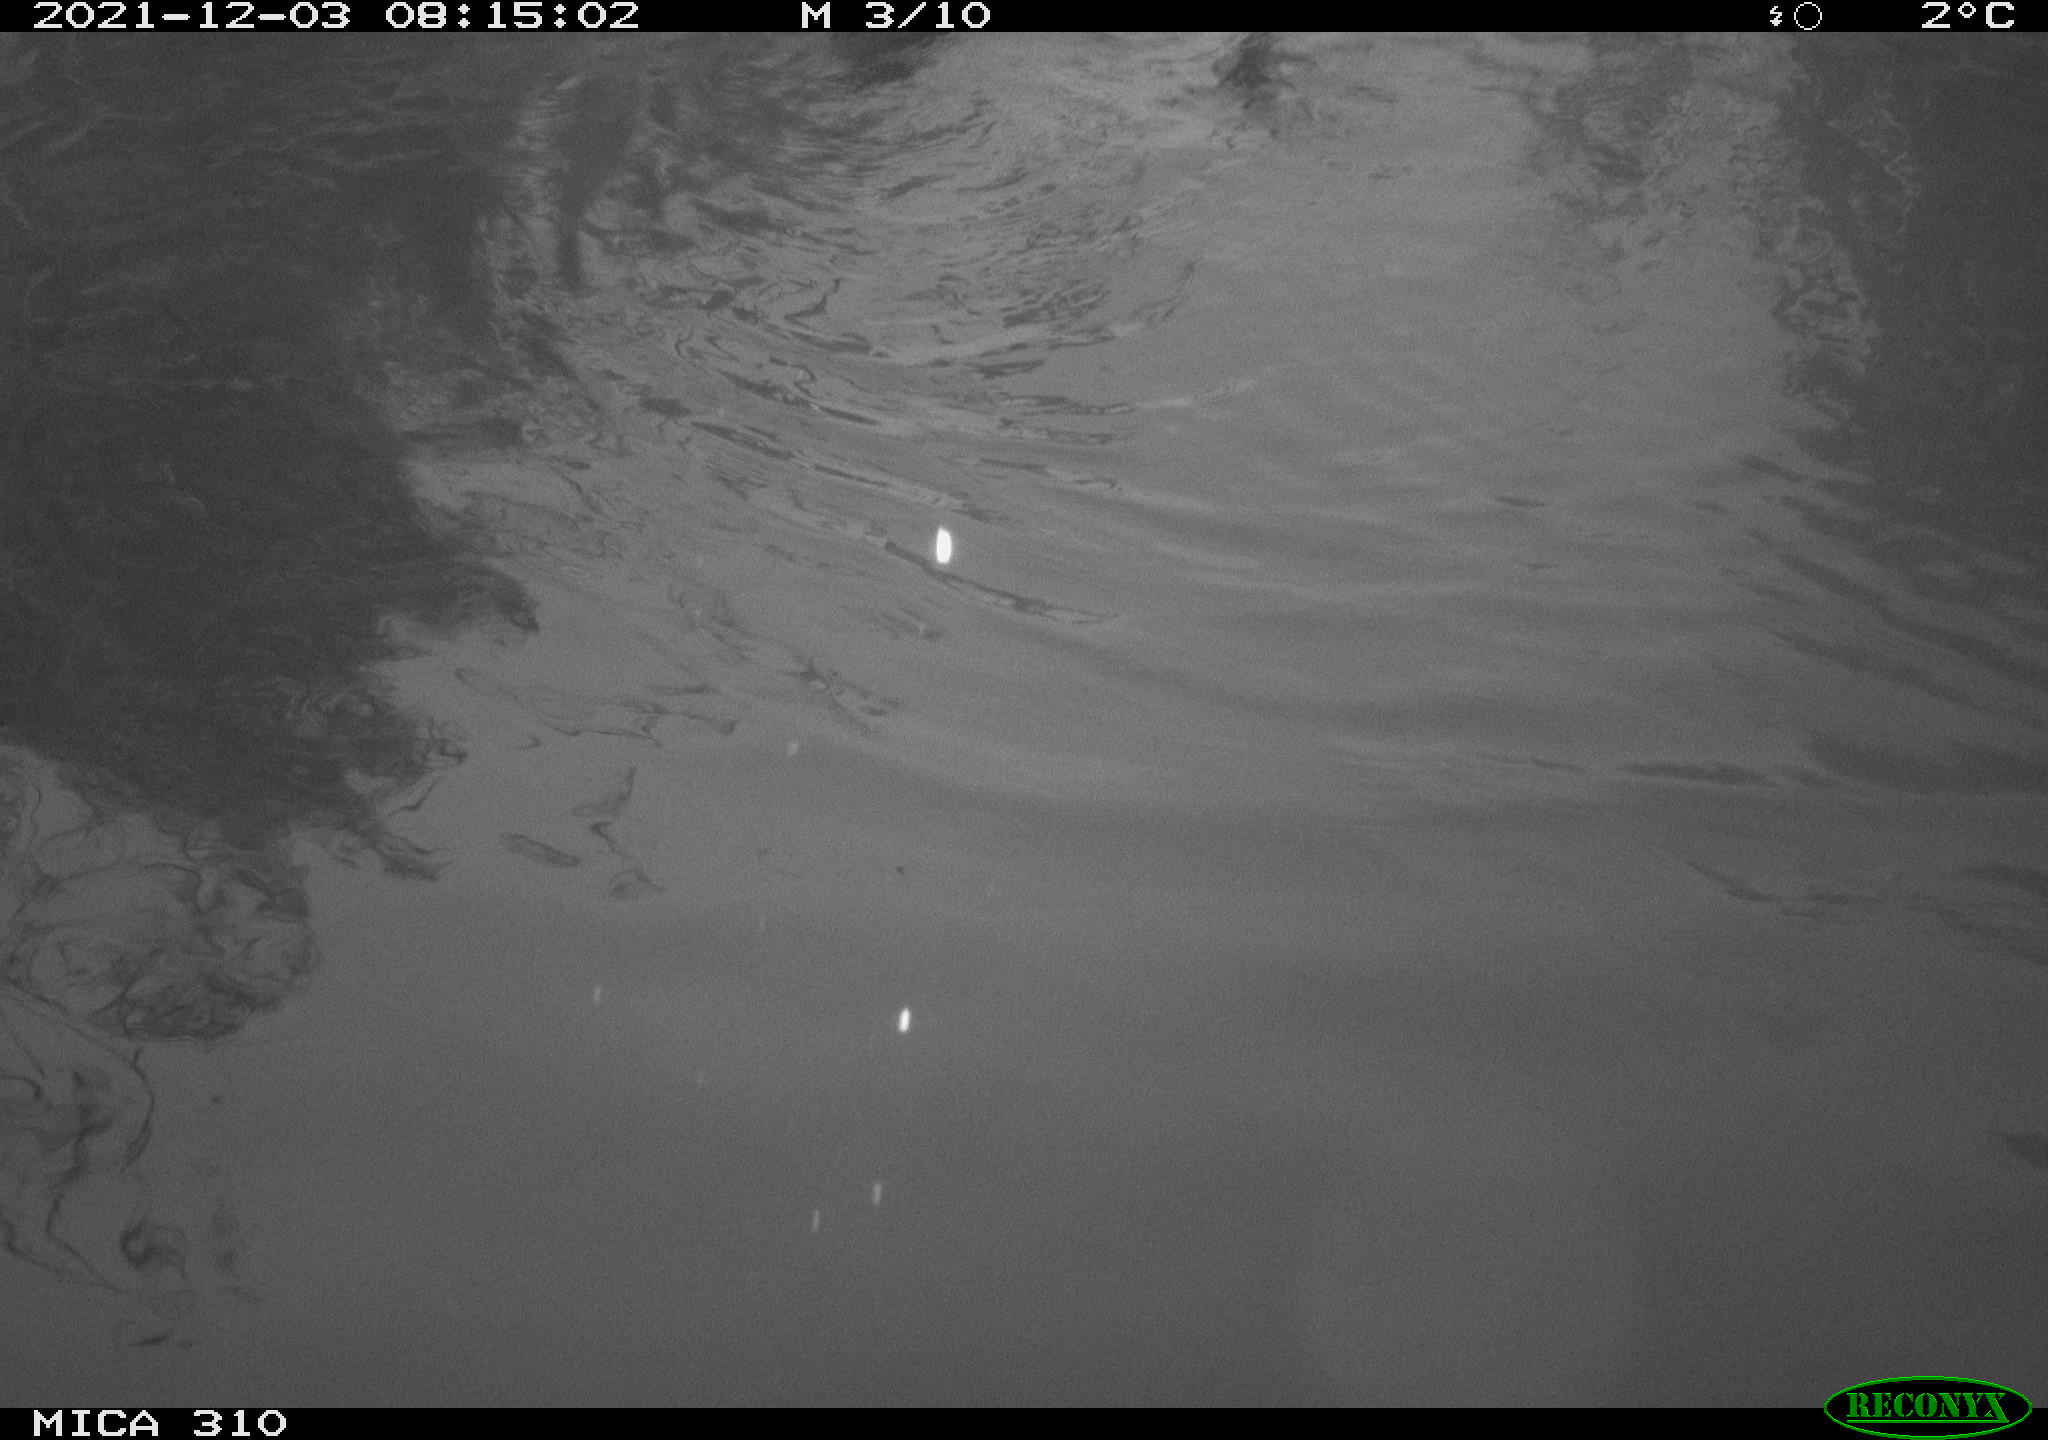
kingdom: Animalia
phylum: Chordata
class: Aves
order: Suliformes
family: Phalacrocoracidae
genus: Phalacrocorax
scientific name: Phalacrocorax carbo
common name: Great cormorant
